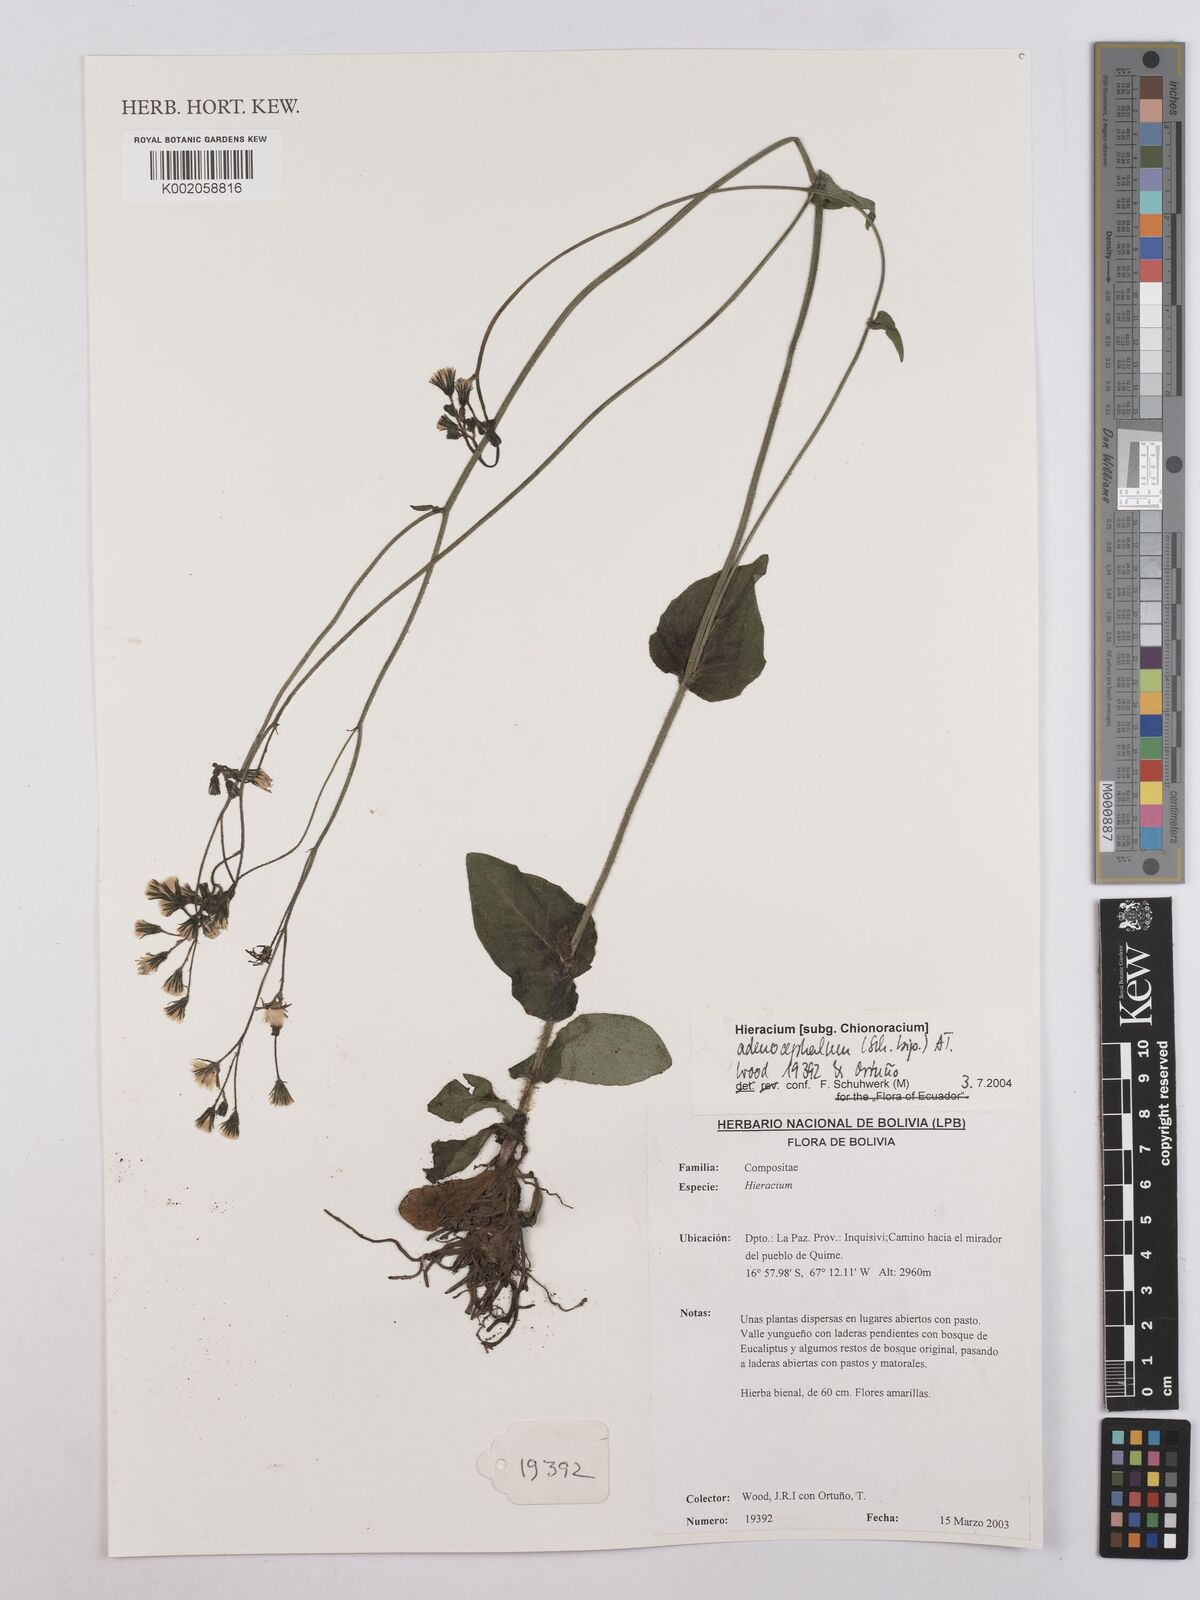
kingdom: Plantae
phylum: Tracheophyta
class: Magnoliopsida
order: Asterales
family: Asteraceae
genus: Hieracium
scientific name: Hieracium
